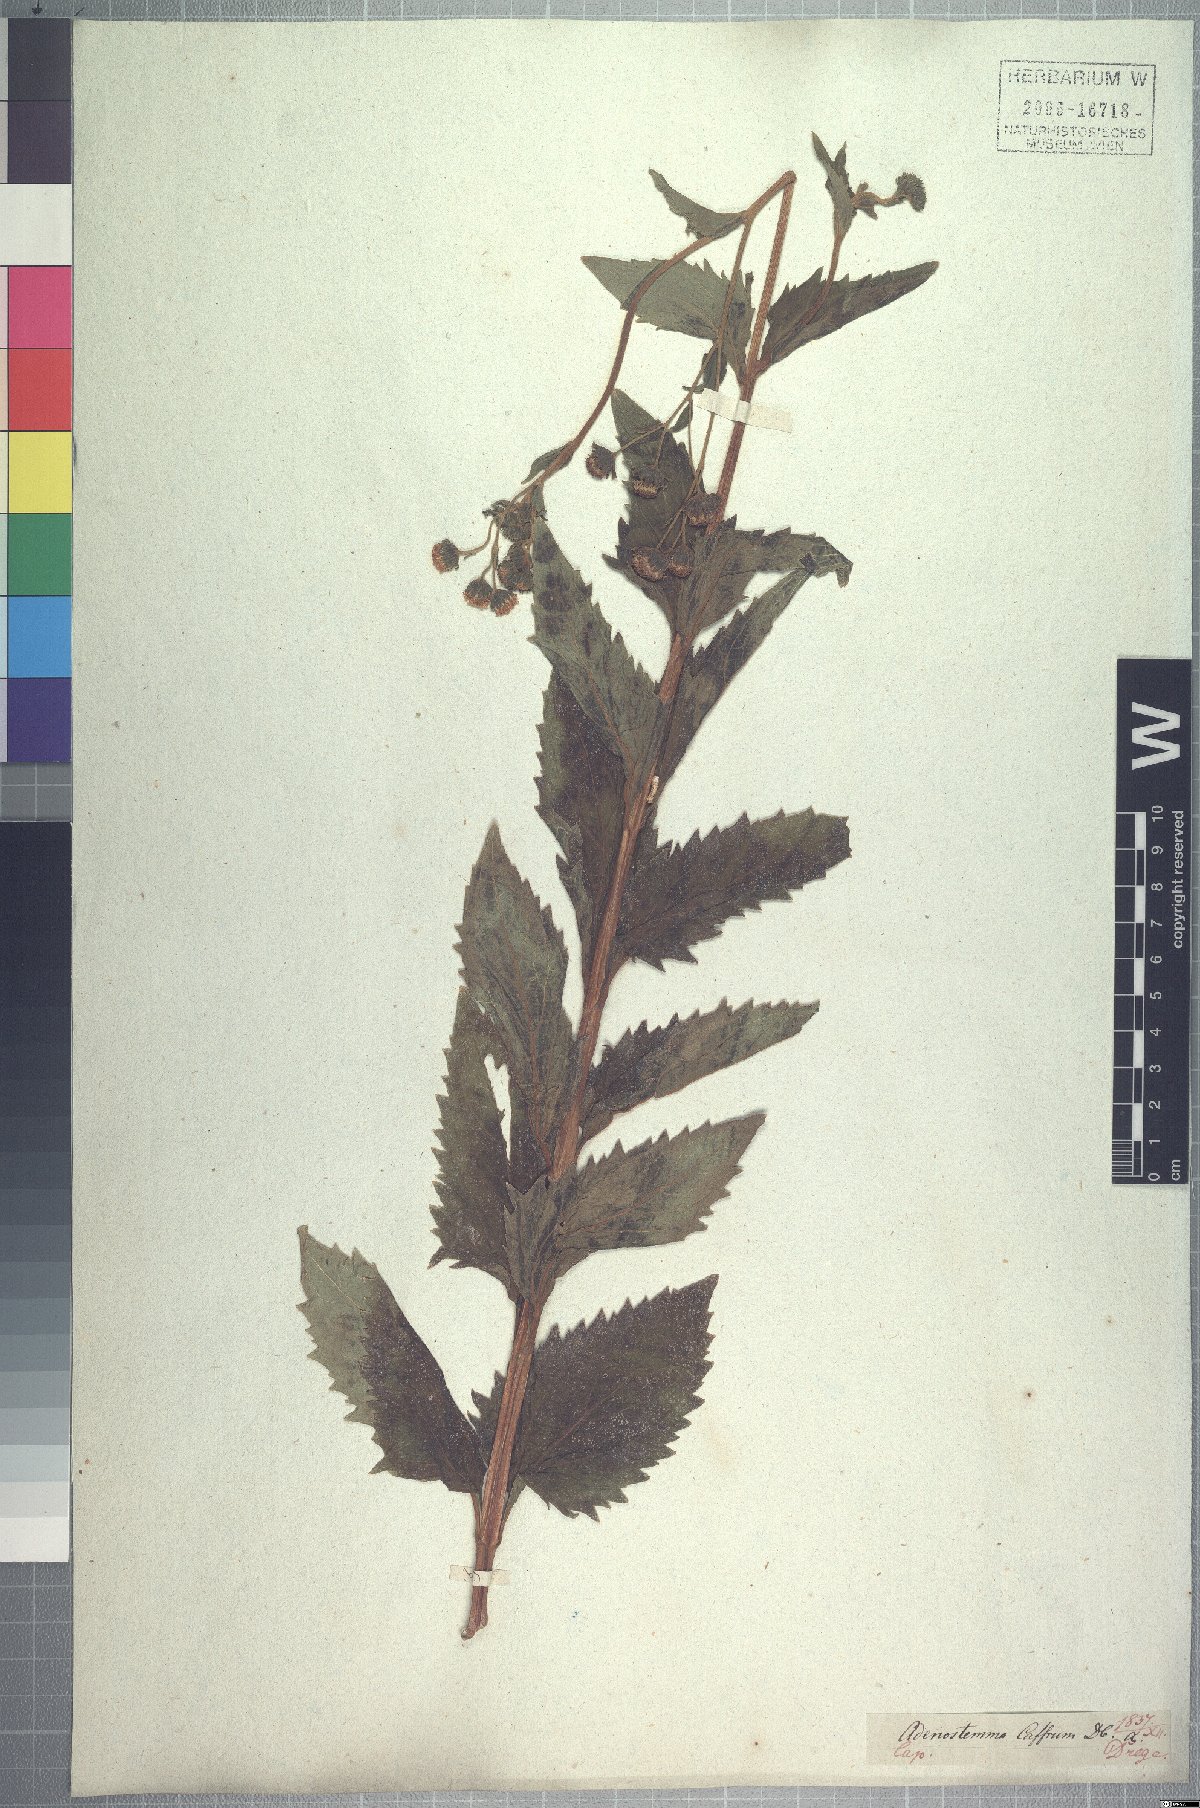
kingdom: Plantae
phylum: Tracheophyta
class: Magnoliopsida
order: Asterales
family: Asteraceae
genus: Adenostemma
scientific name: Adenostemma caffrum
